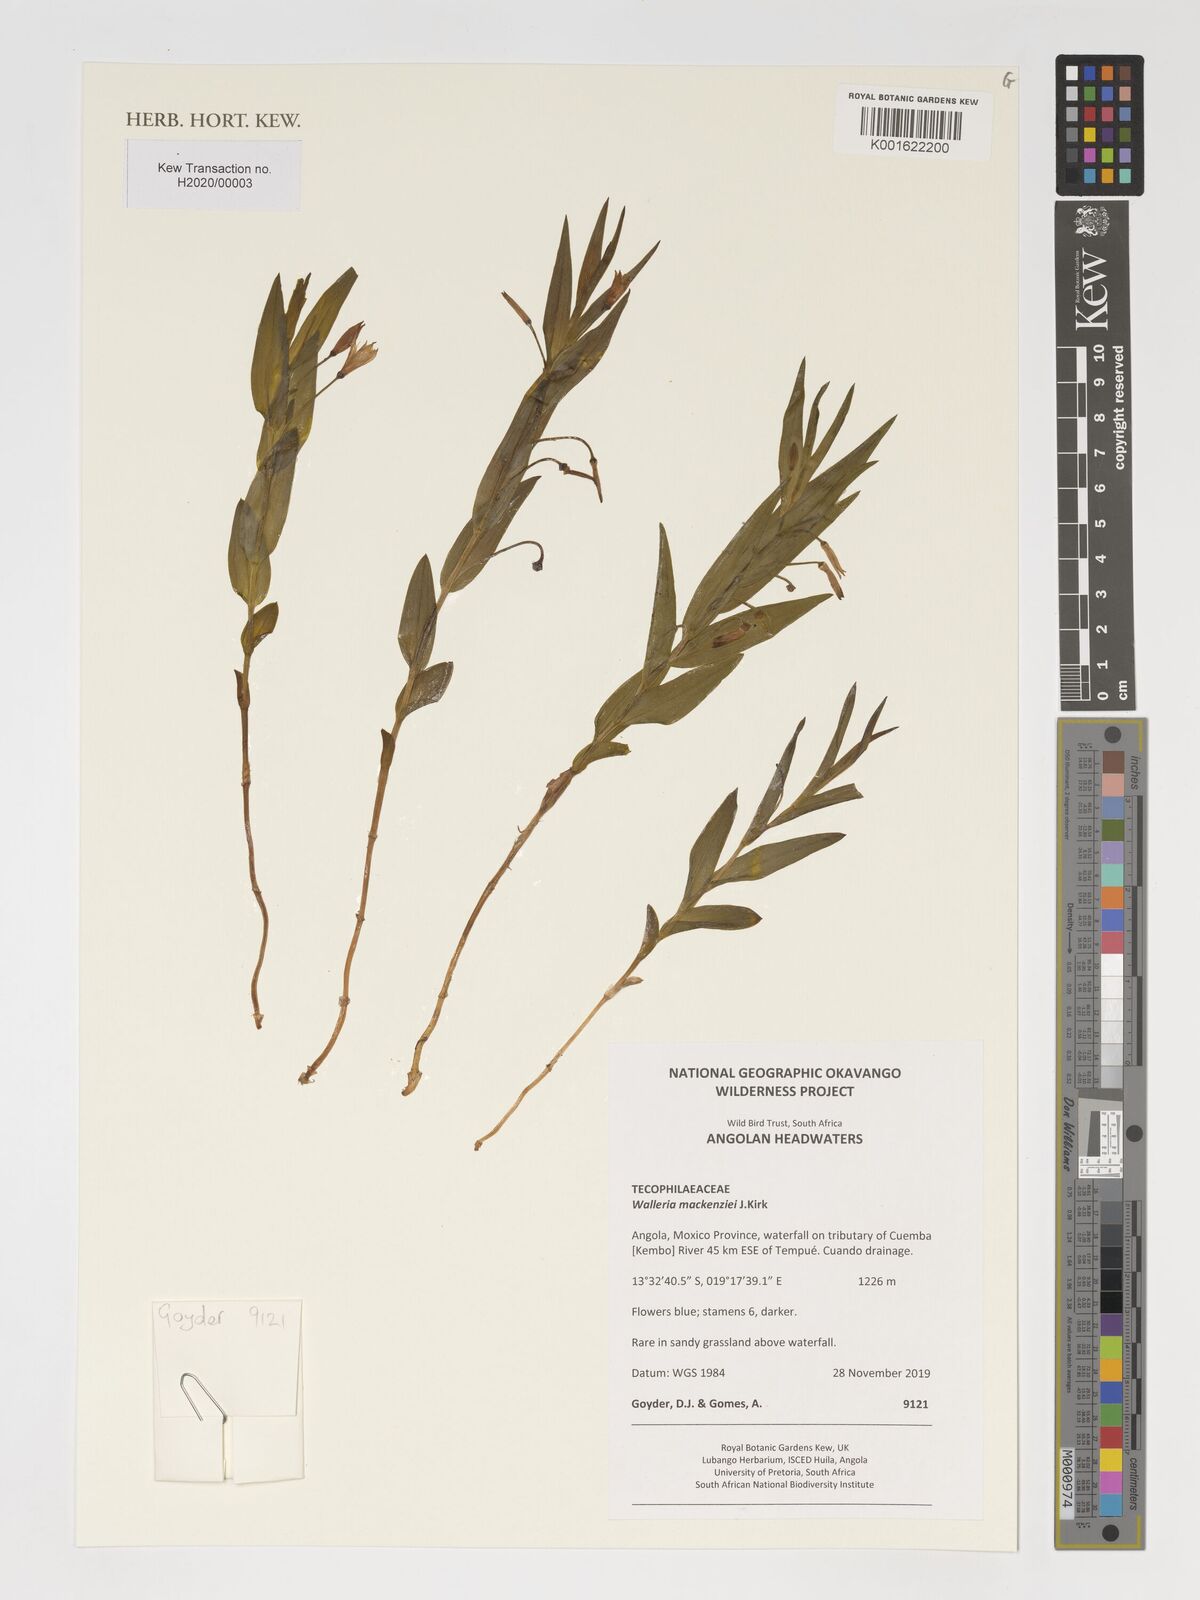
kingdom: Plantae
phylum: Tracheophyta
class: Liliopsida
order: Asparagales
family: Tecophilaeaceae
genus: Walleria
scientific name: Walleria mackenziei
